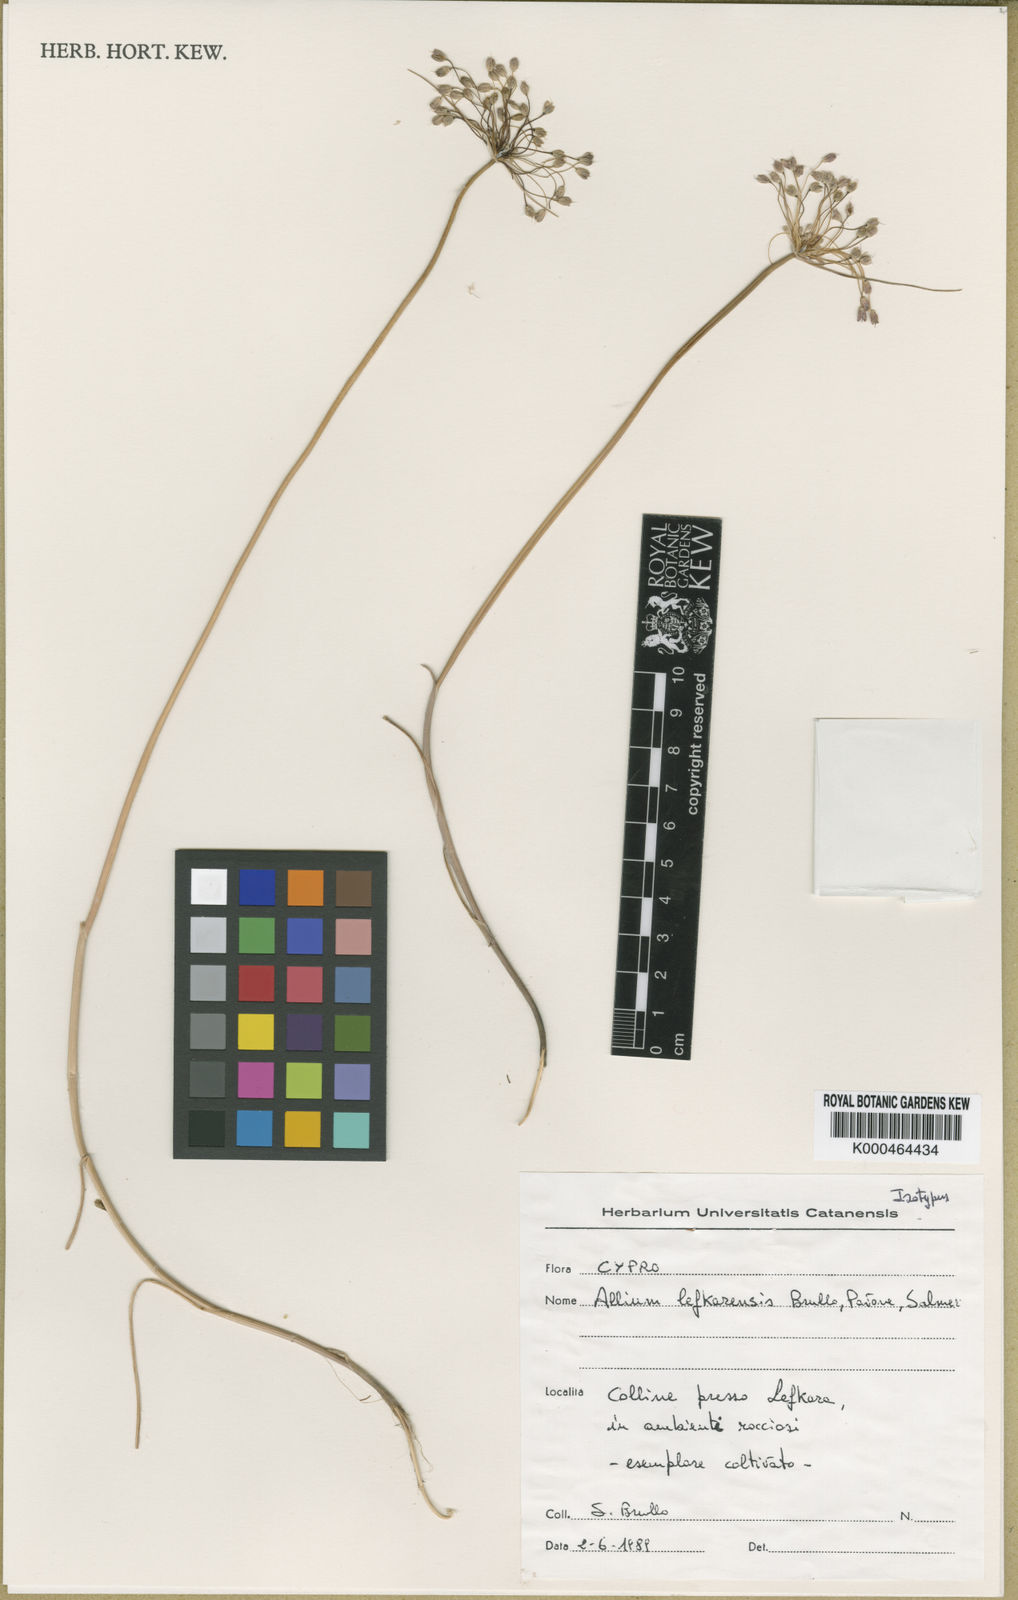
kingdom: Plantae
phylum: Tracheophyta
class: Liliopsida
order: Asparagales
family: Amaryllidaceae
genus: Allium
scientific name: Allium
